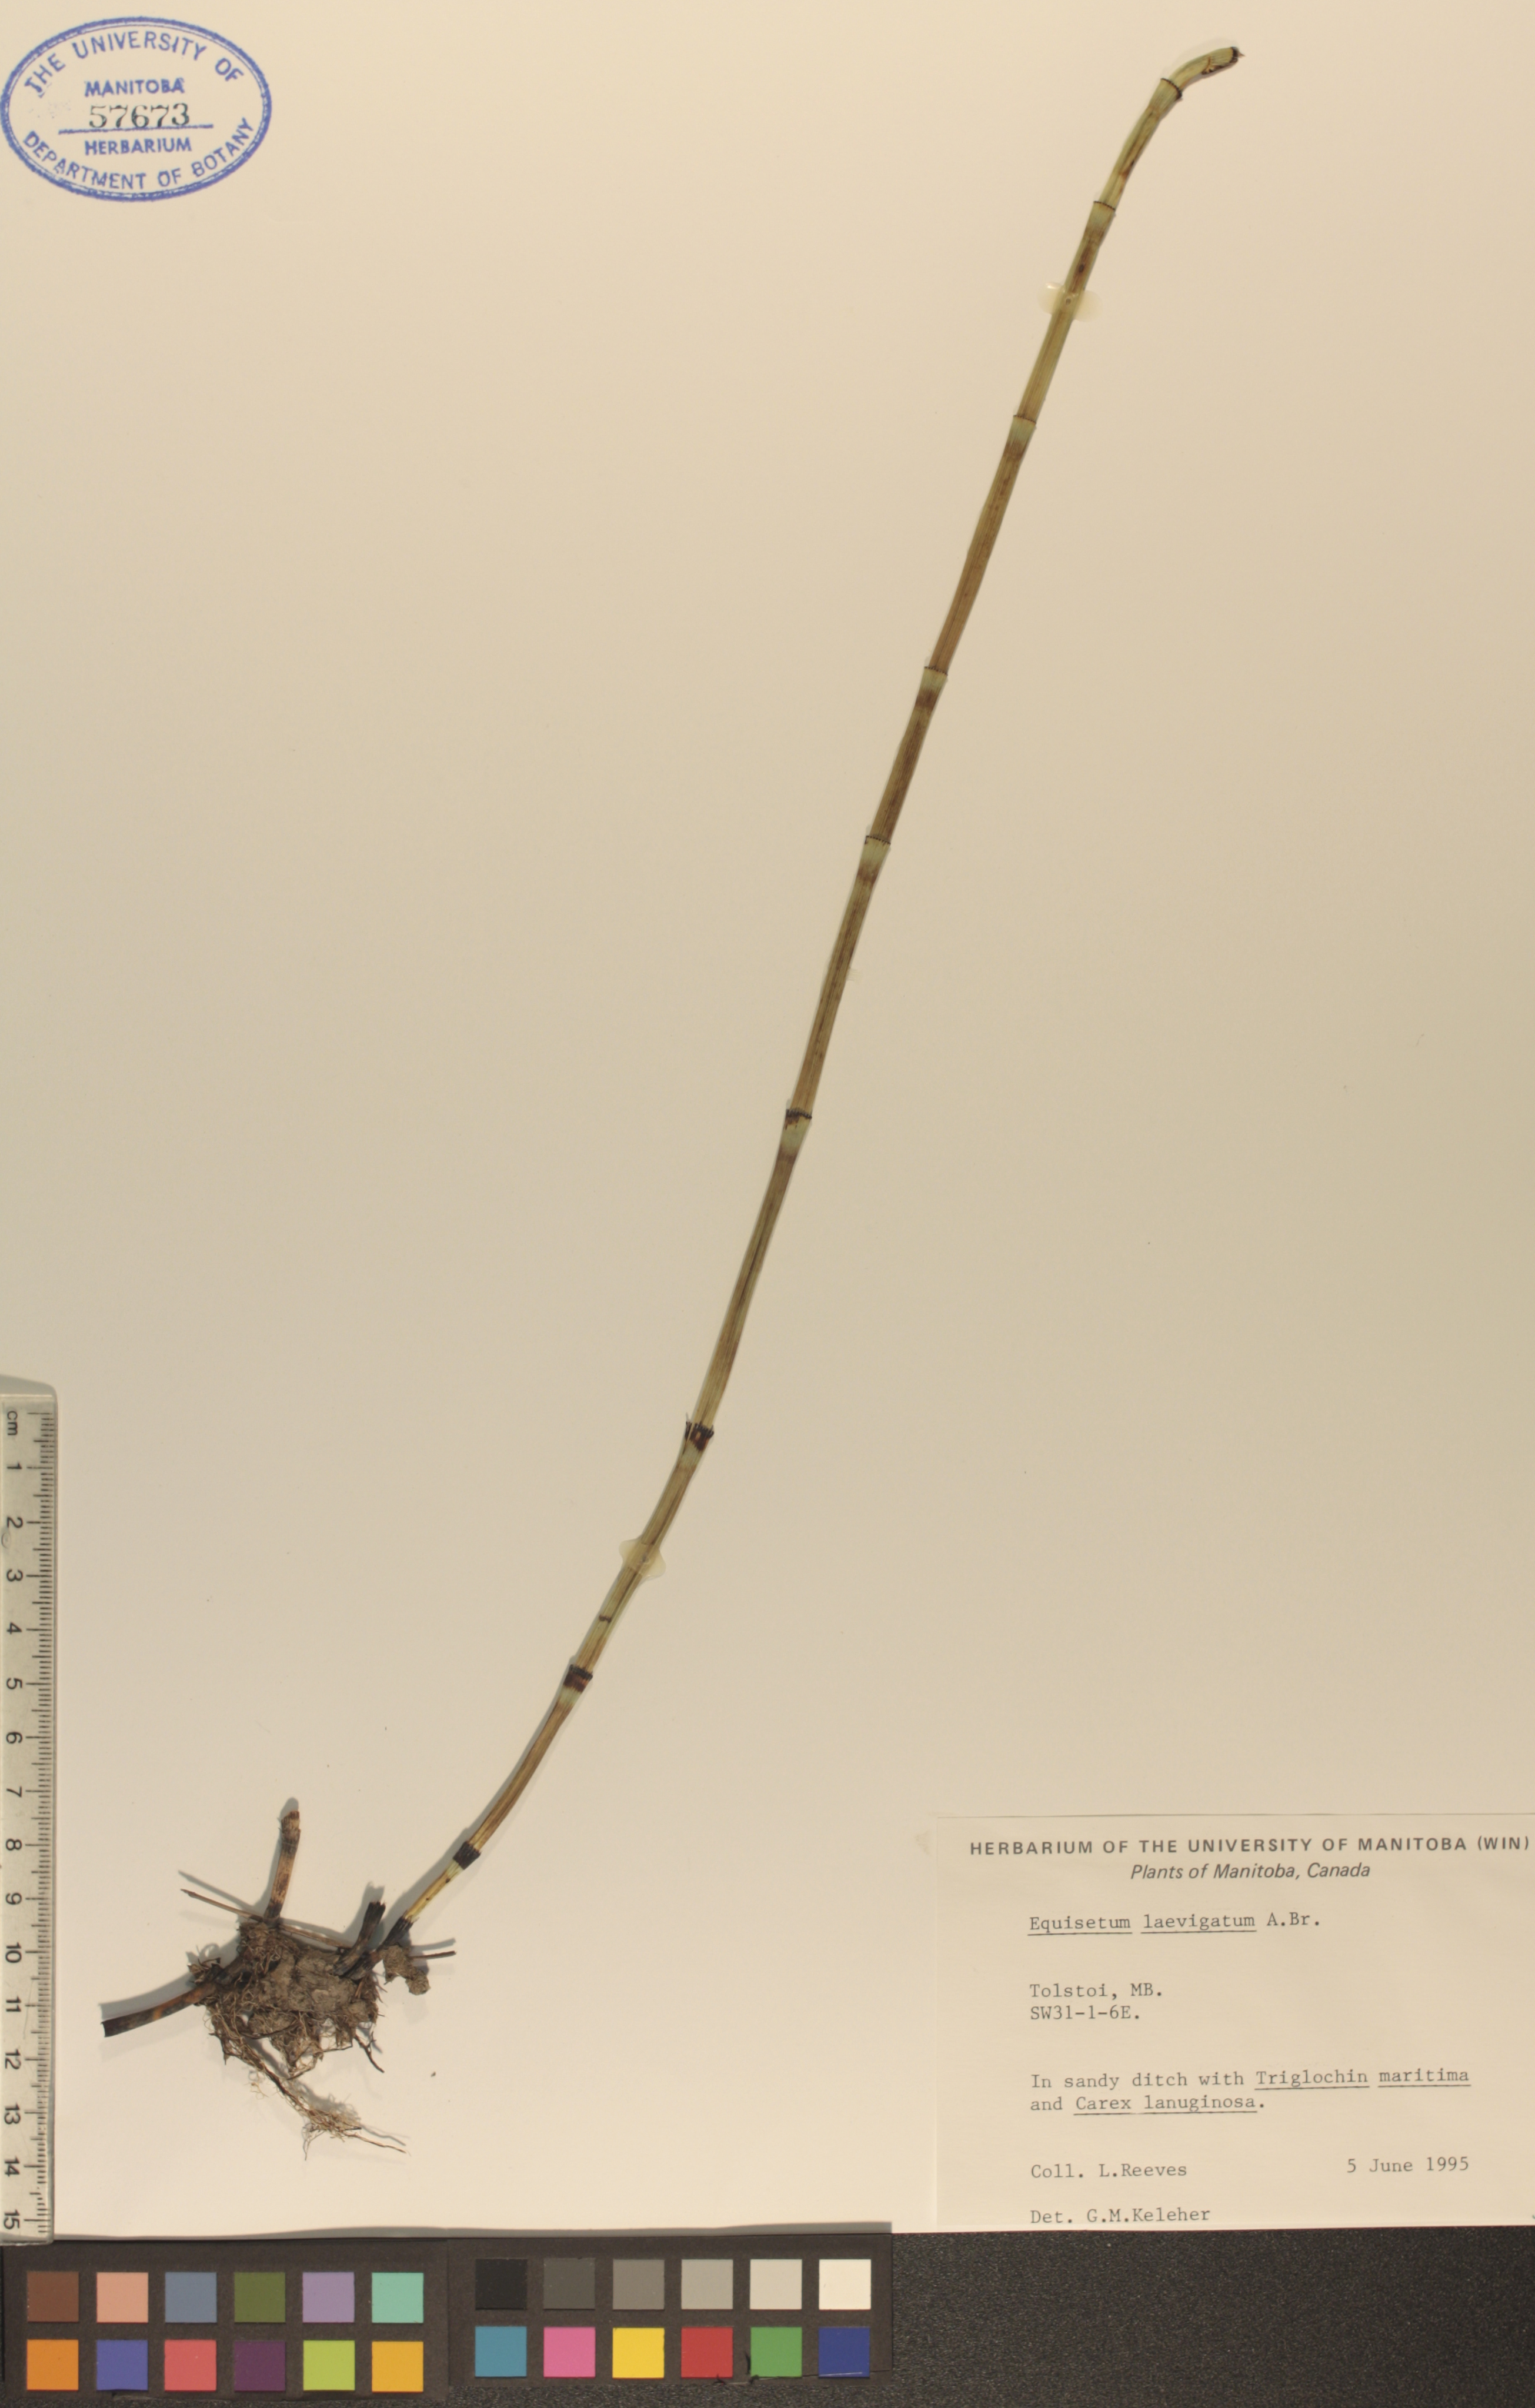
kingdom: Plantae
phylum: Tracheophyta
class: Polypodiopsida
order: Equisetales
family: Equisetaceae
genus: Equisetum
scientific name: Equisetum laevigatum
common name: Smooth scouring-rush
